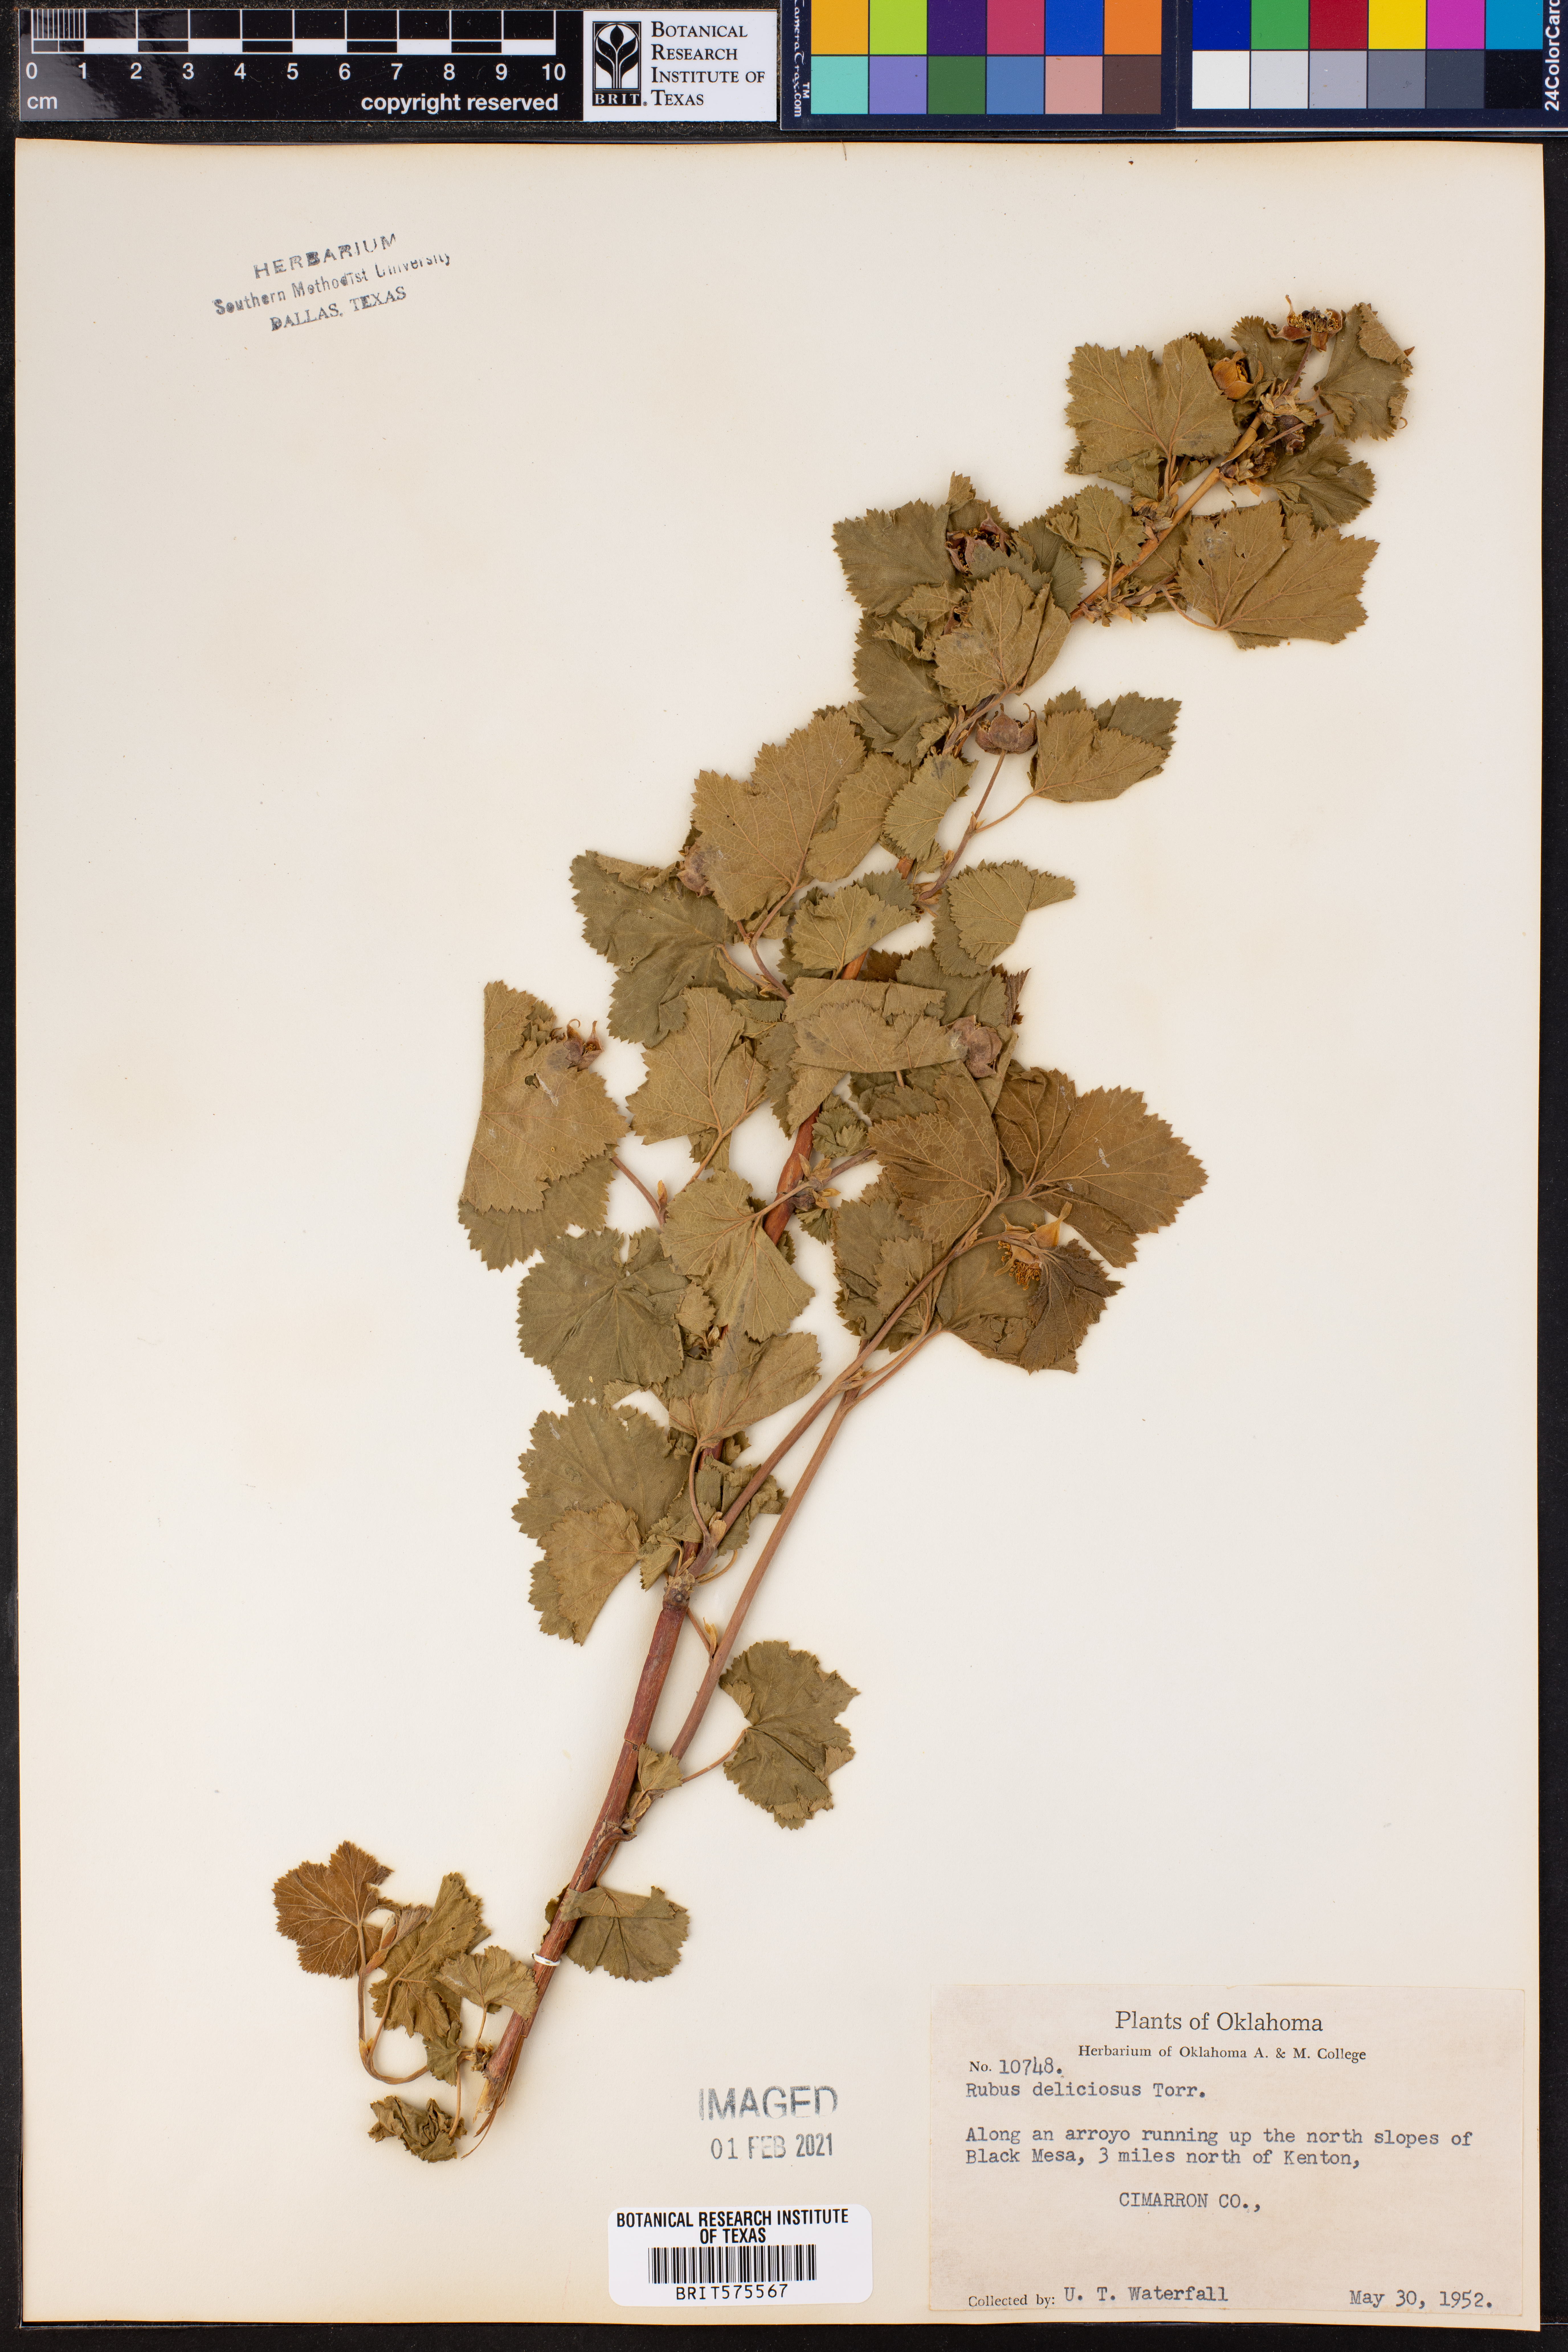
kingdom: Plantae
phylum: Tracheophyta
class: Magnoliopsida
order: Rosales
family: Rosaceae
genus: Rubus
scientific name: Rubus deliciosus
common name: Rocky mountain raspberry
